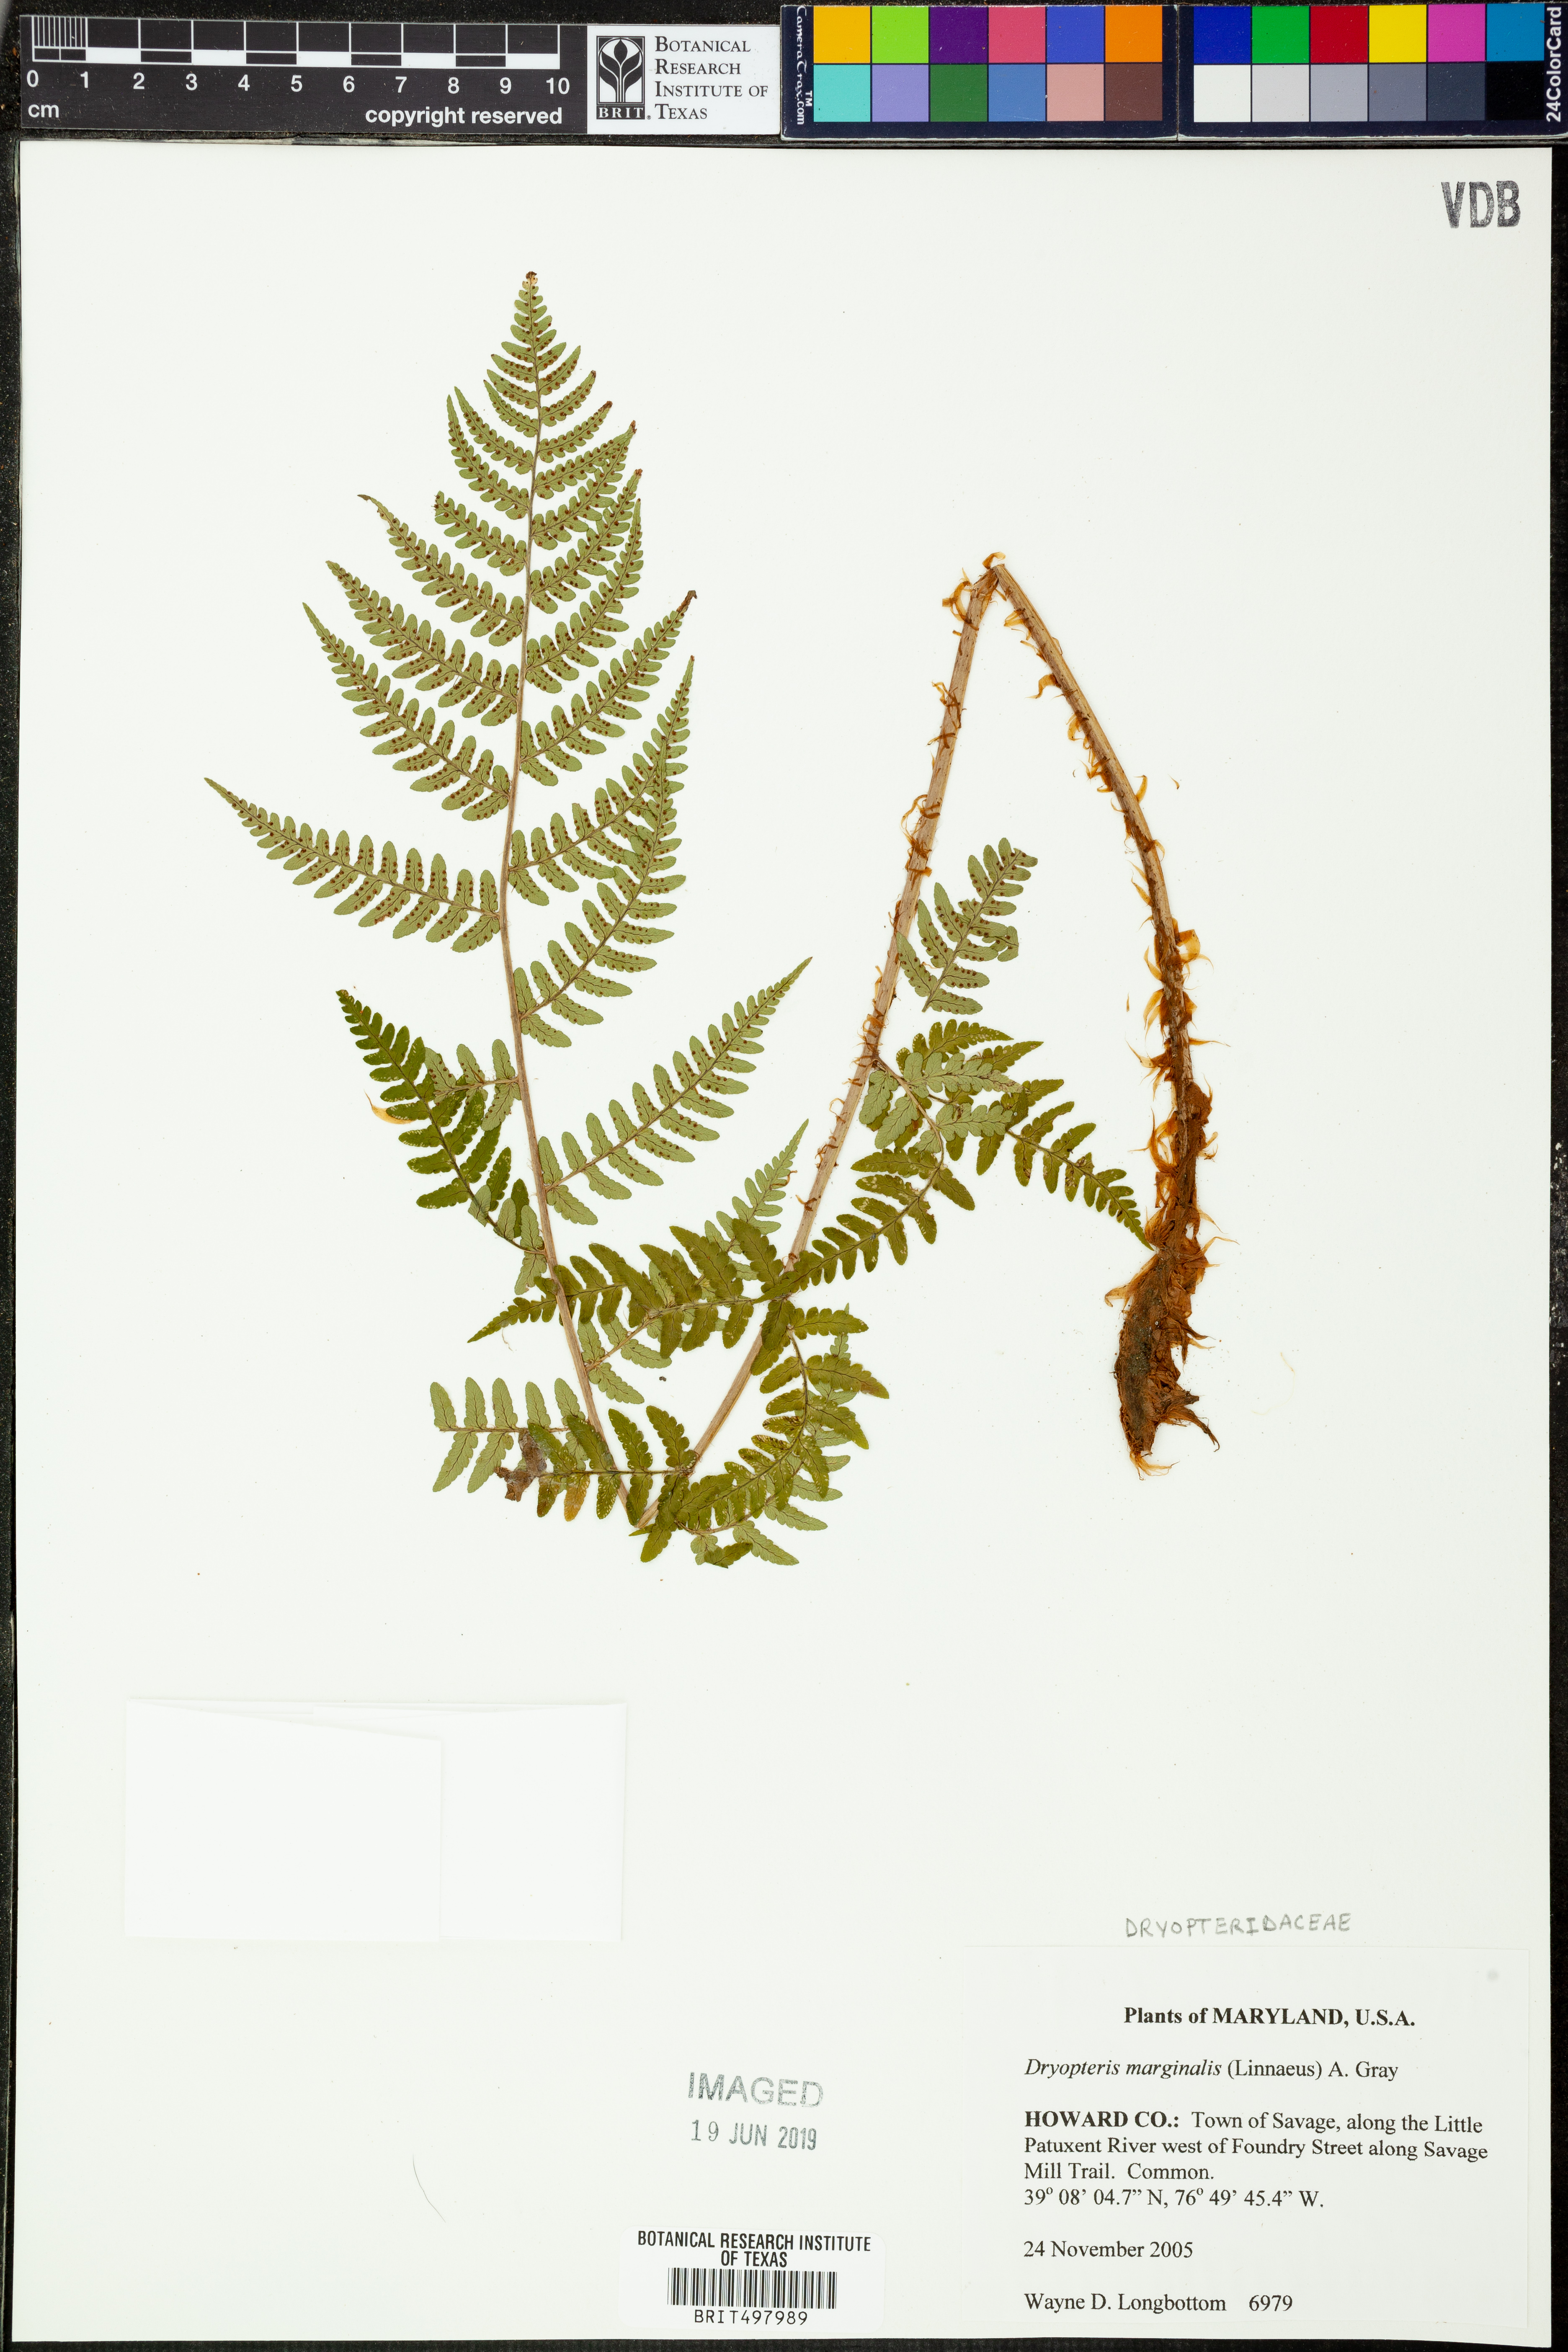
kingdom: Plantae
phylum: Tracheophyta
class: Polypodiopsida
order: Polypodiales
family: Dryopteridaceae
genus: Dryopteris
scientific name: Dryopteris marginalis
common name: Marginal wood fern
